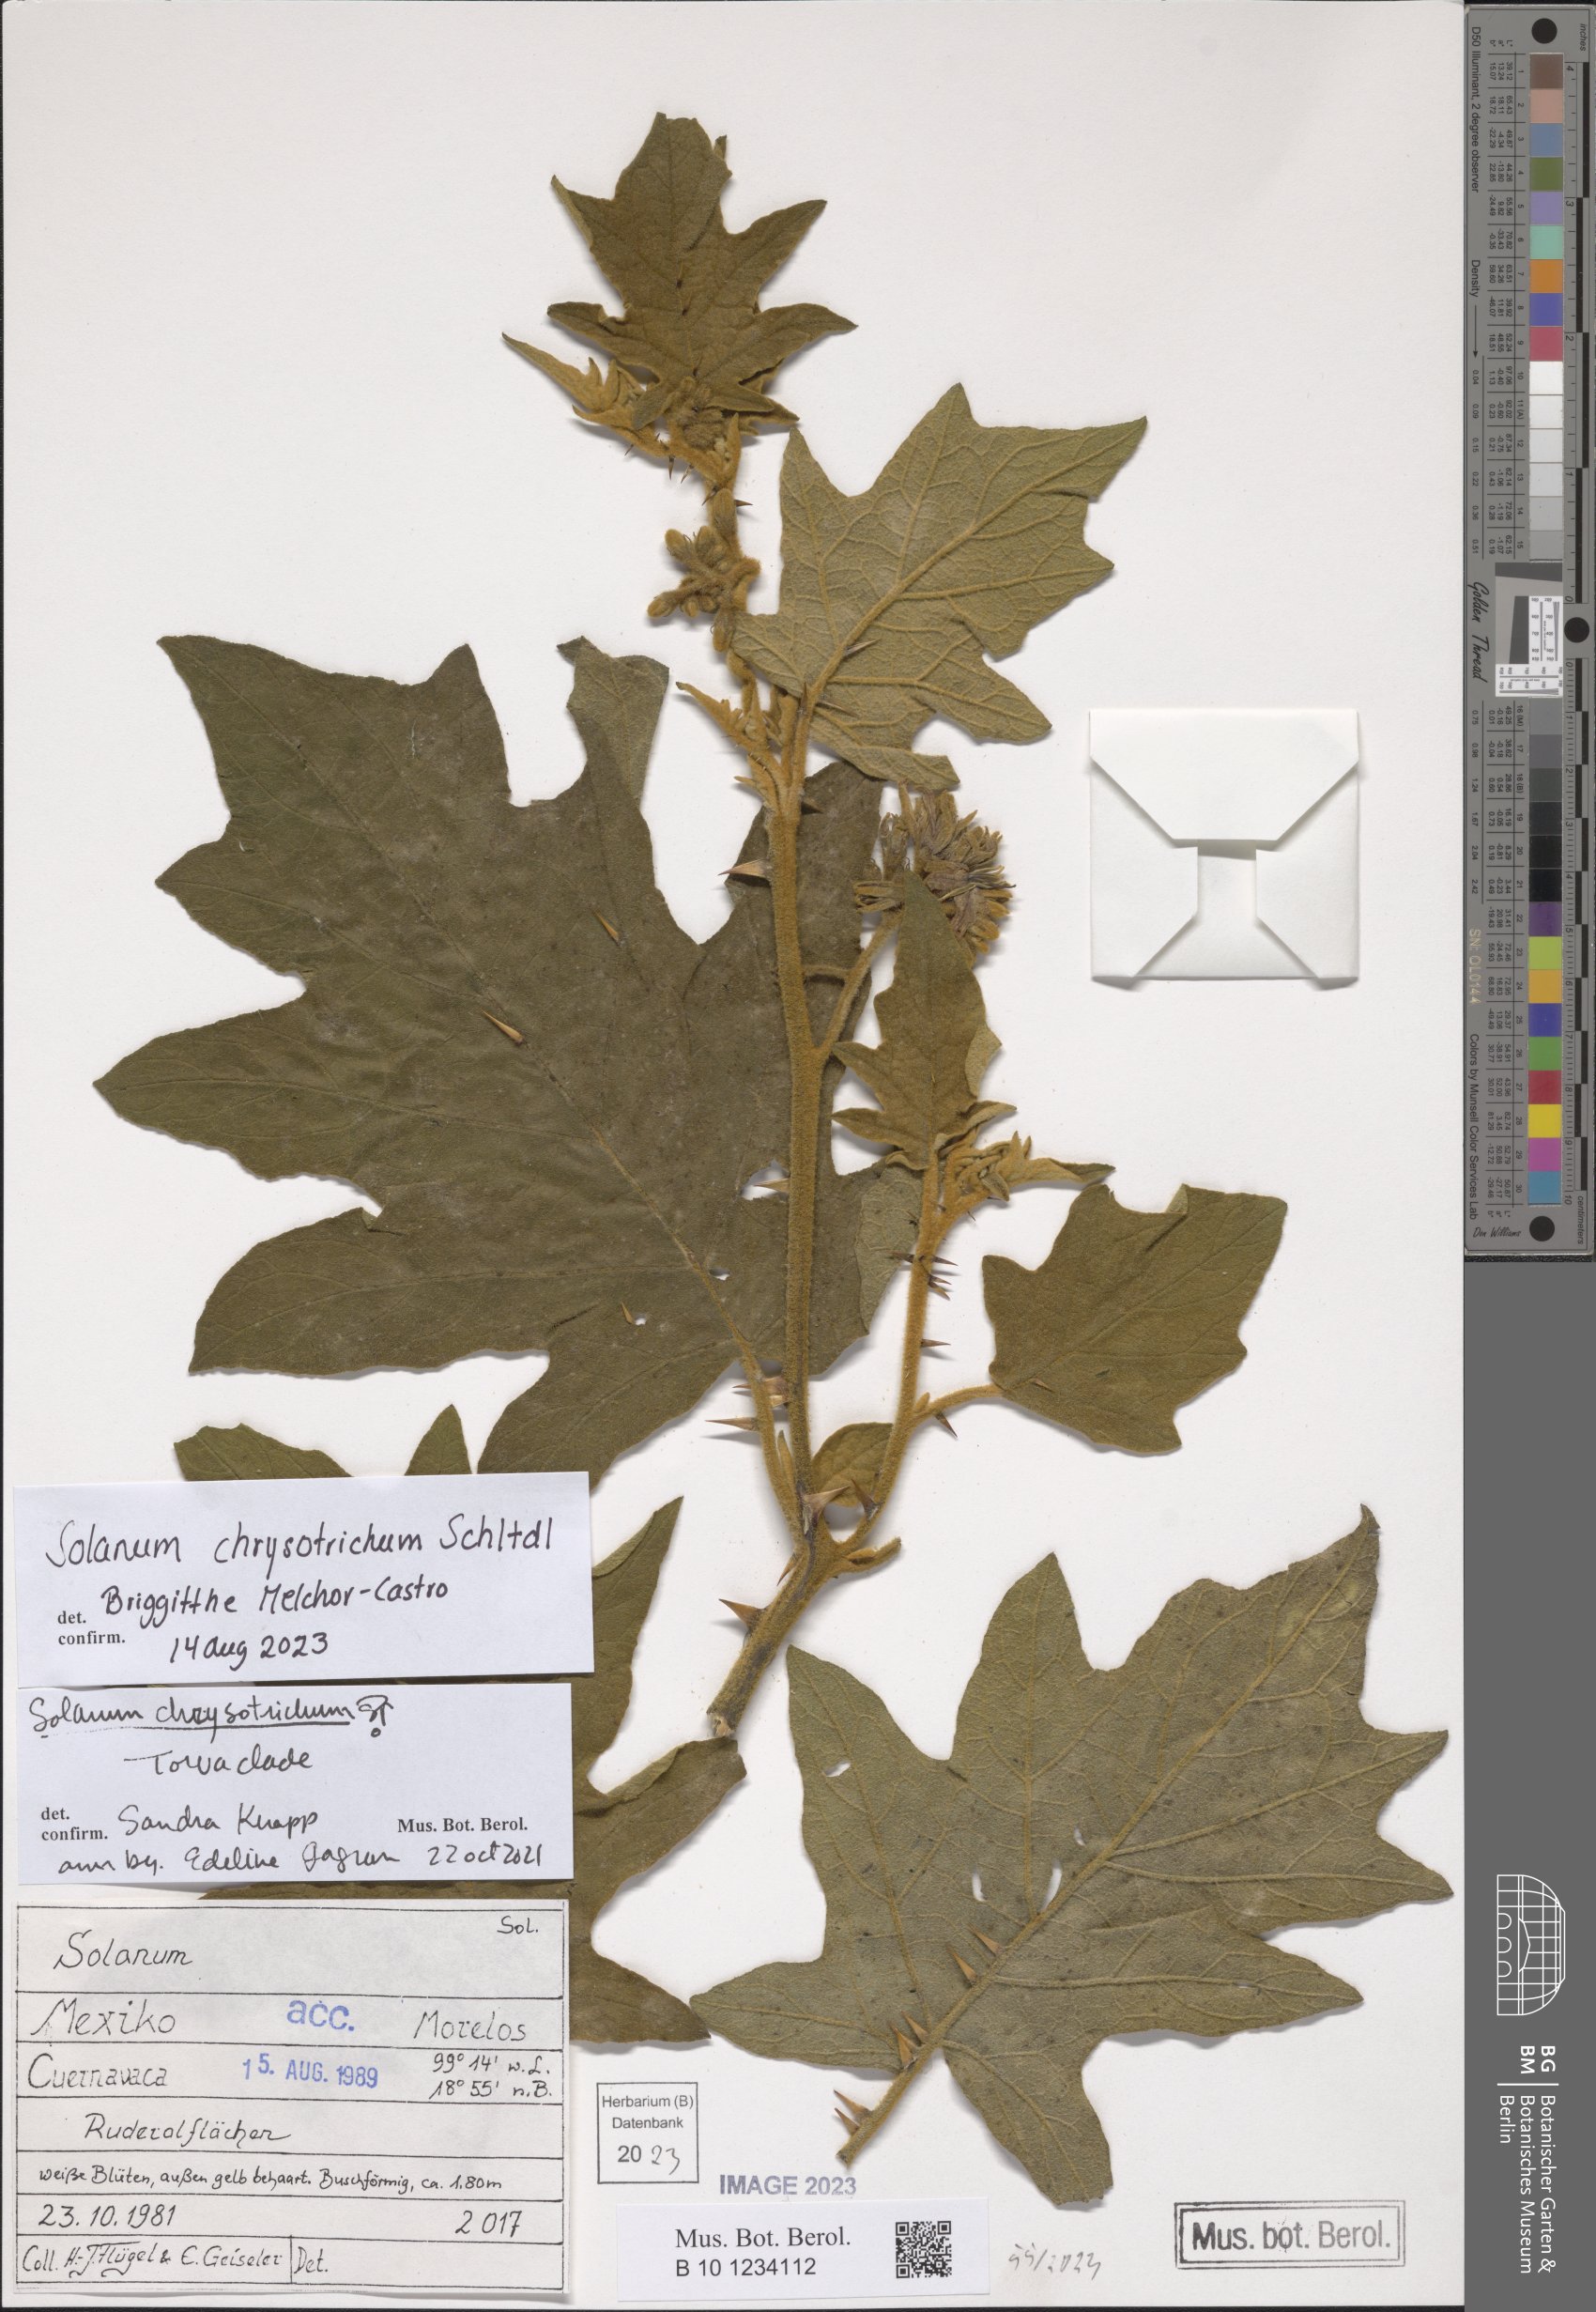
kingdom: Plantae
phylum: Tracheophyta
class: Magnoliopsida
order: Solanales
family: Solanaceae
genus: Solanum
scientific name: Solanum chrysotrichum
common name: Nightshade
